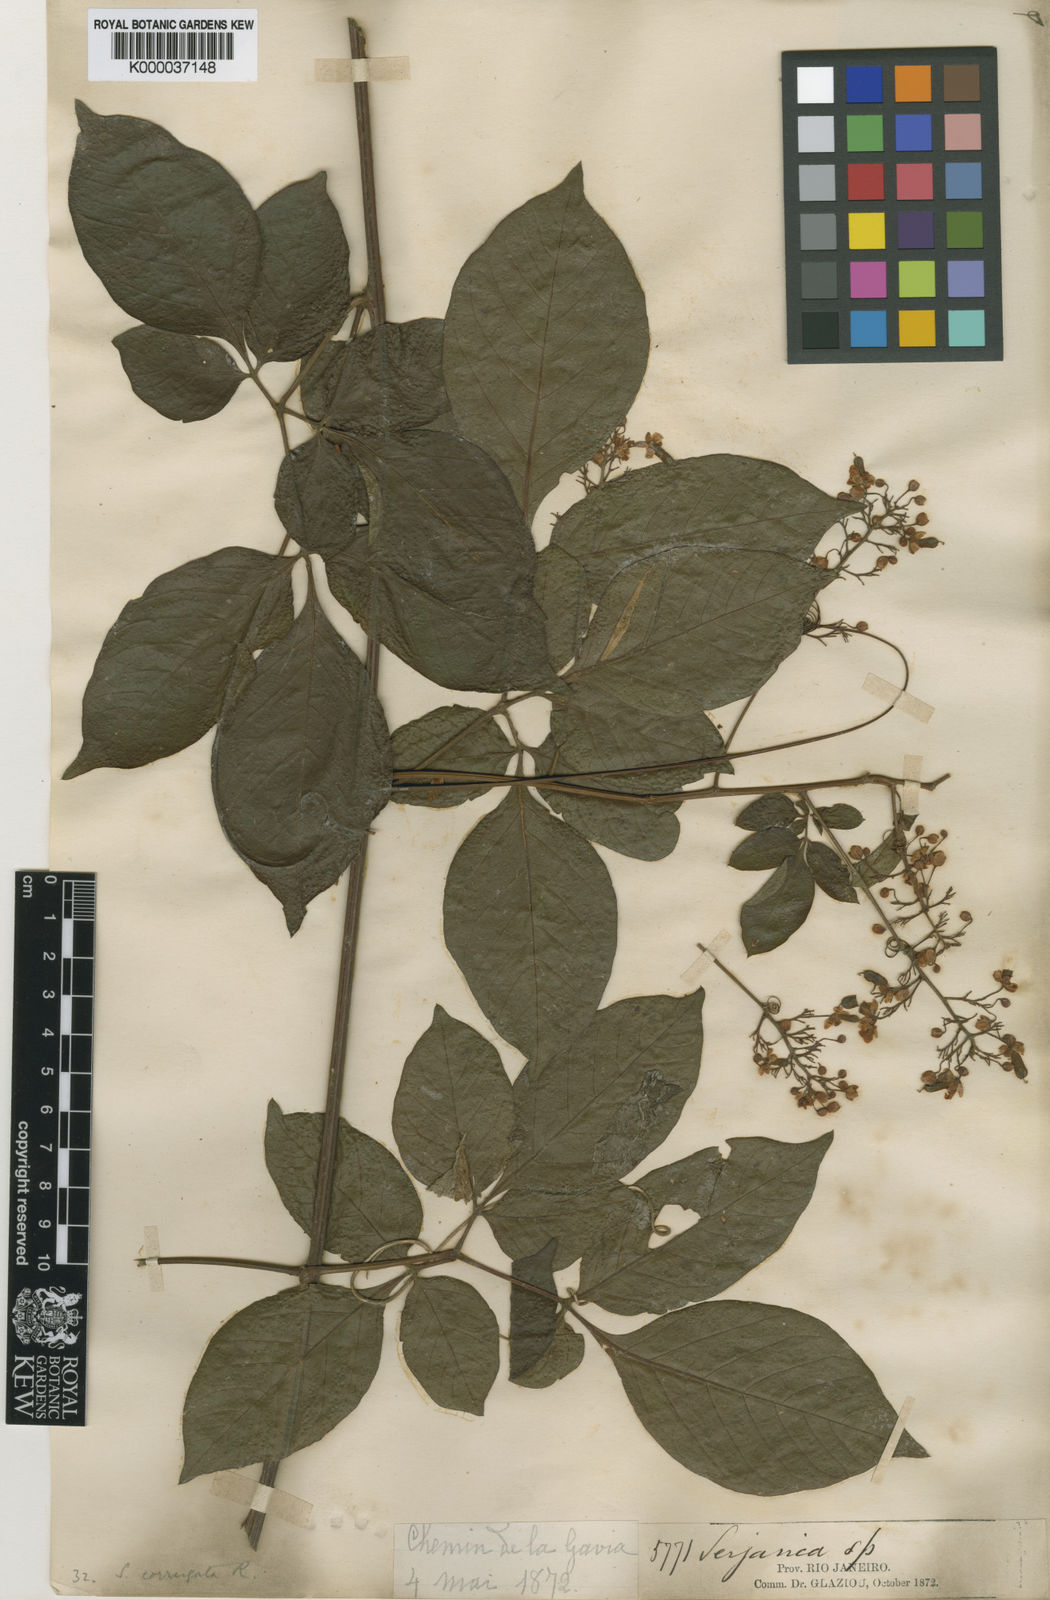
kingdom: Plantae
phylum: Tracheophyta
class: Magnoliopsida
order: Sapindales
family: Sapindaceae
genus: Serjania
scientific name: Serjania corrugata
